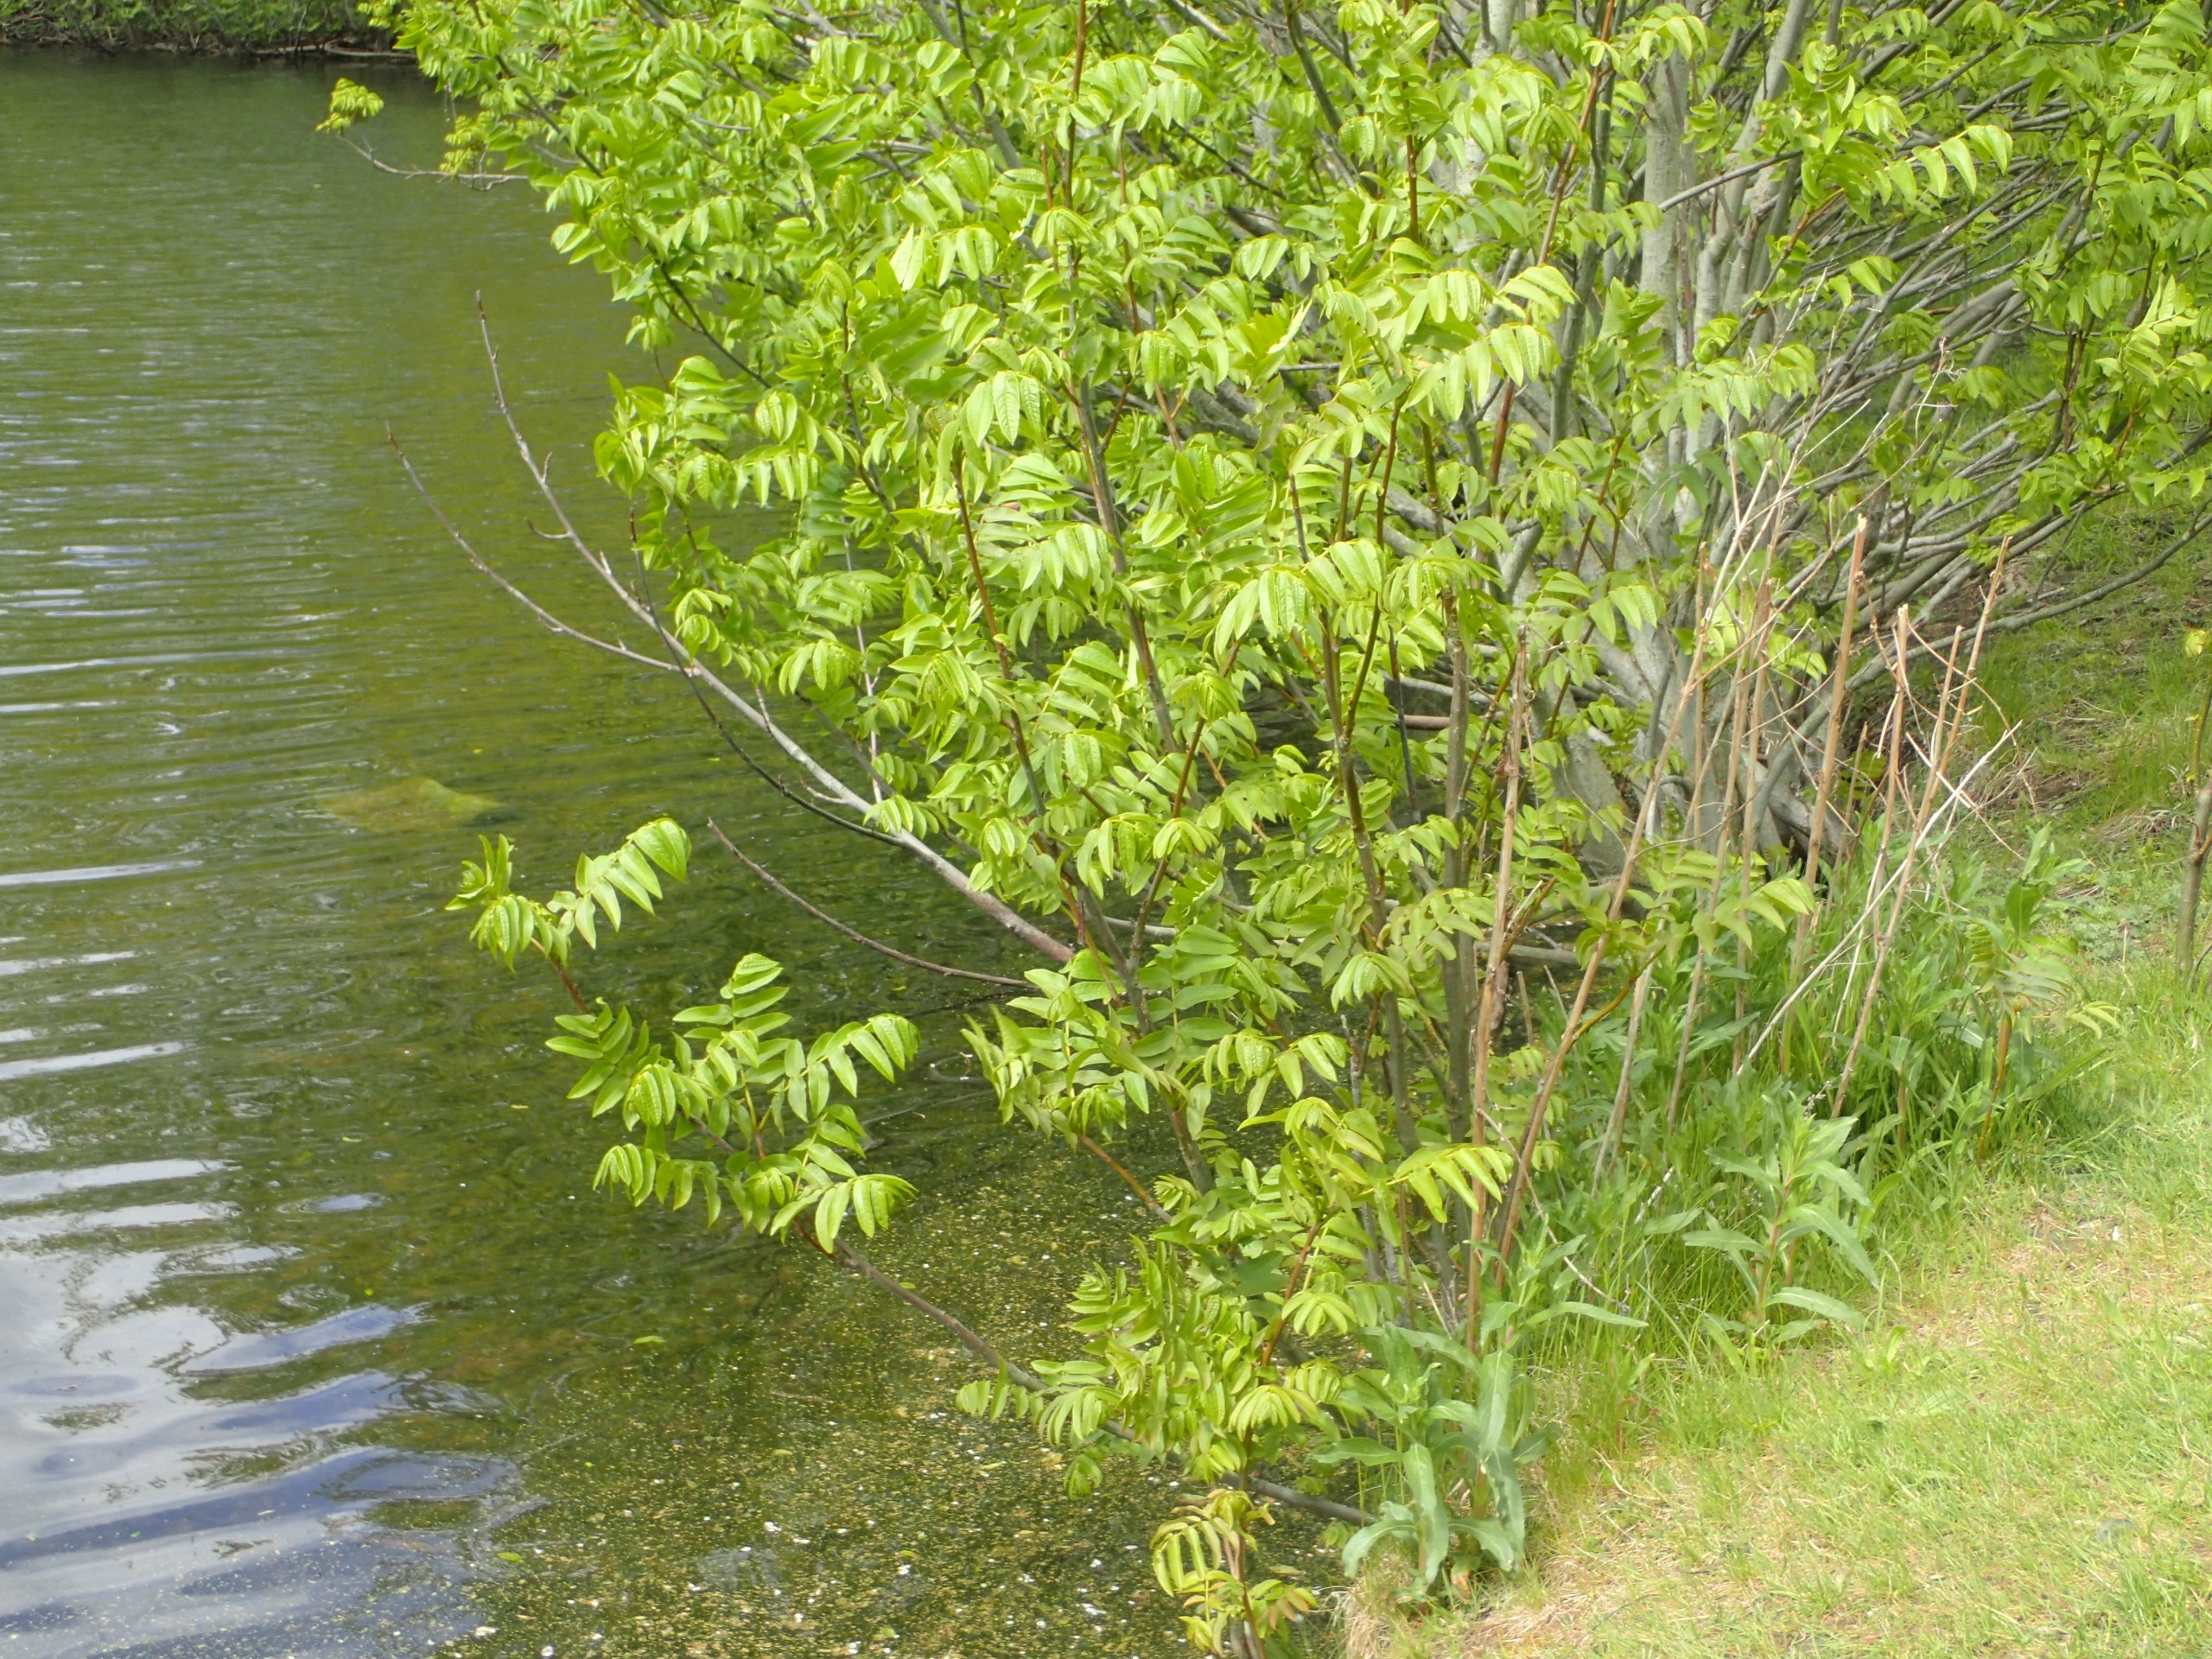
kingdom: Plantae
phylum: Tracheophyta
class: Magnoliopsida
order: Fagales
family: Juglandaceae
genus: Pterocarya
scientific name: Pterocarya fraxinifolia
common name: Kaukasisk vingevalnød
